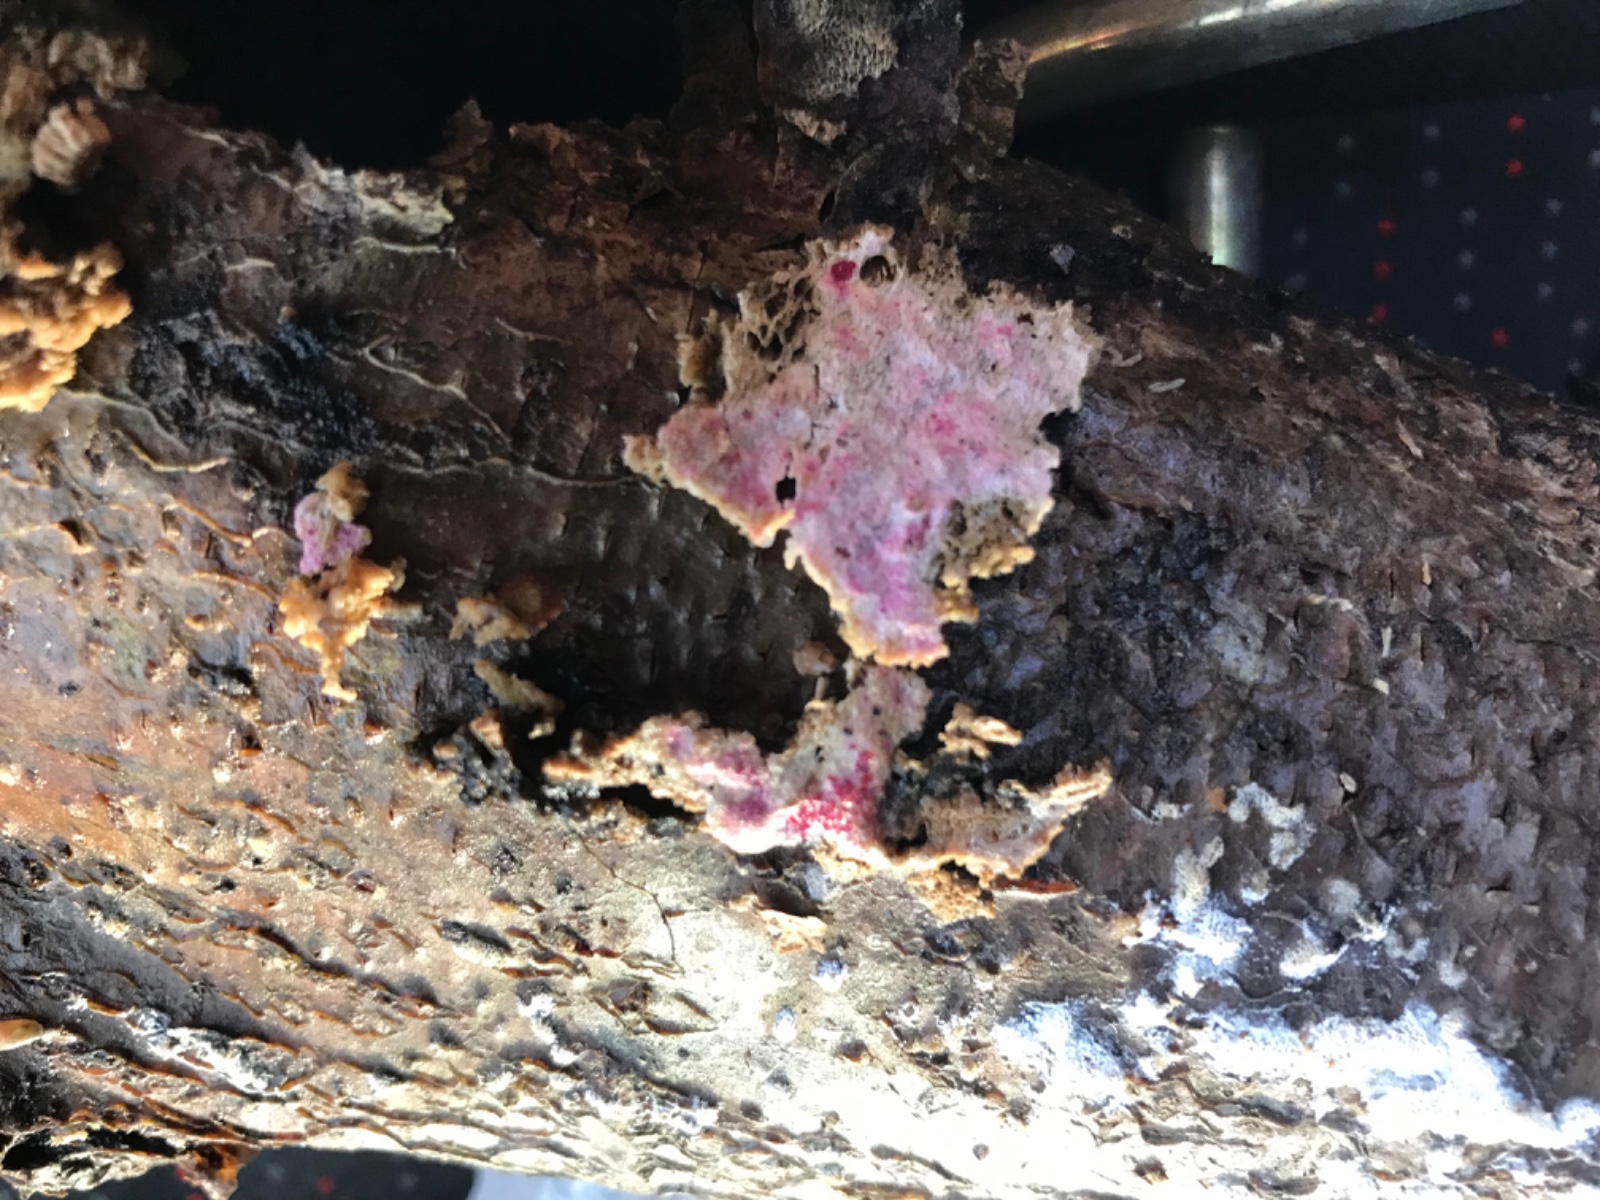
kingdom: Fungi
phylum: Ascomycota
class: Sordariomycetes
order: Hypocreales
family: Hypocreaceae
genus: Hypomyces
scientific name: Hypomyces rosellus
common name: rosa snylteskorpe
